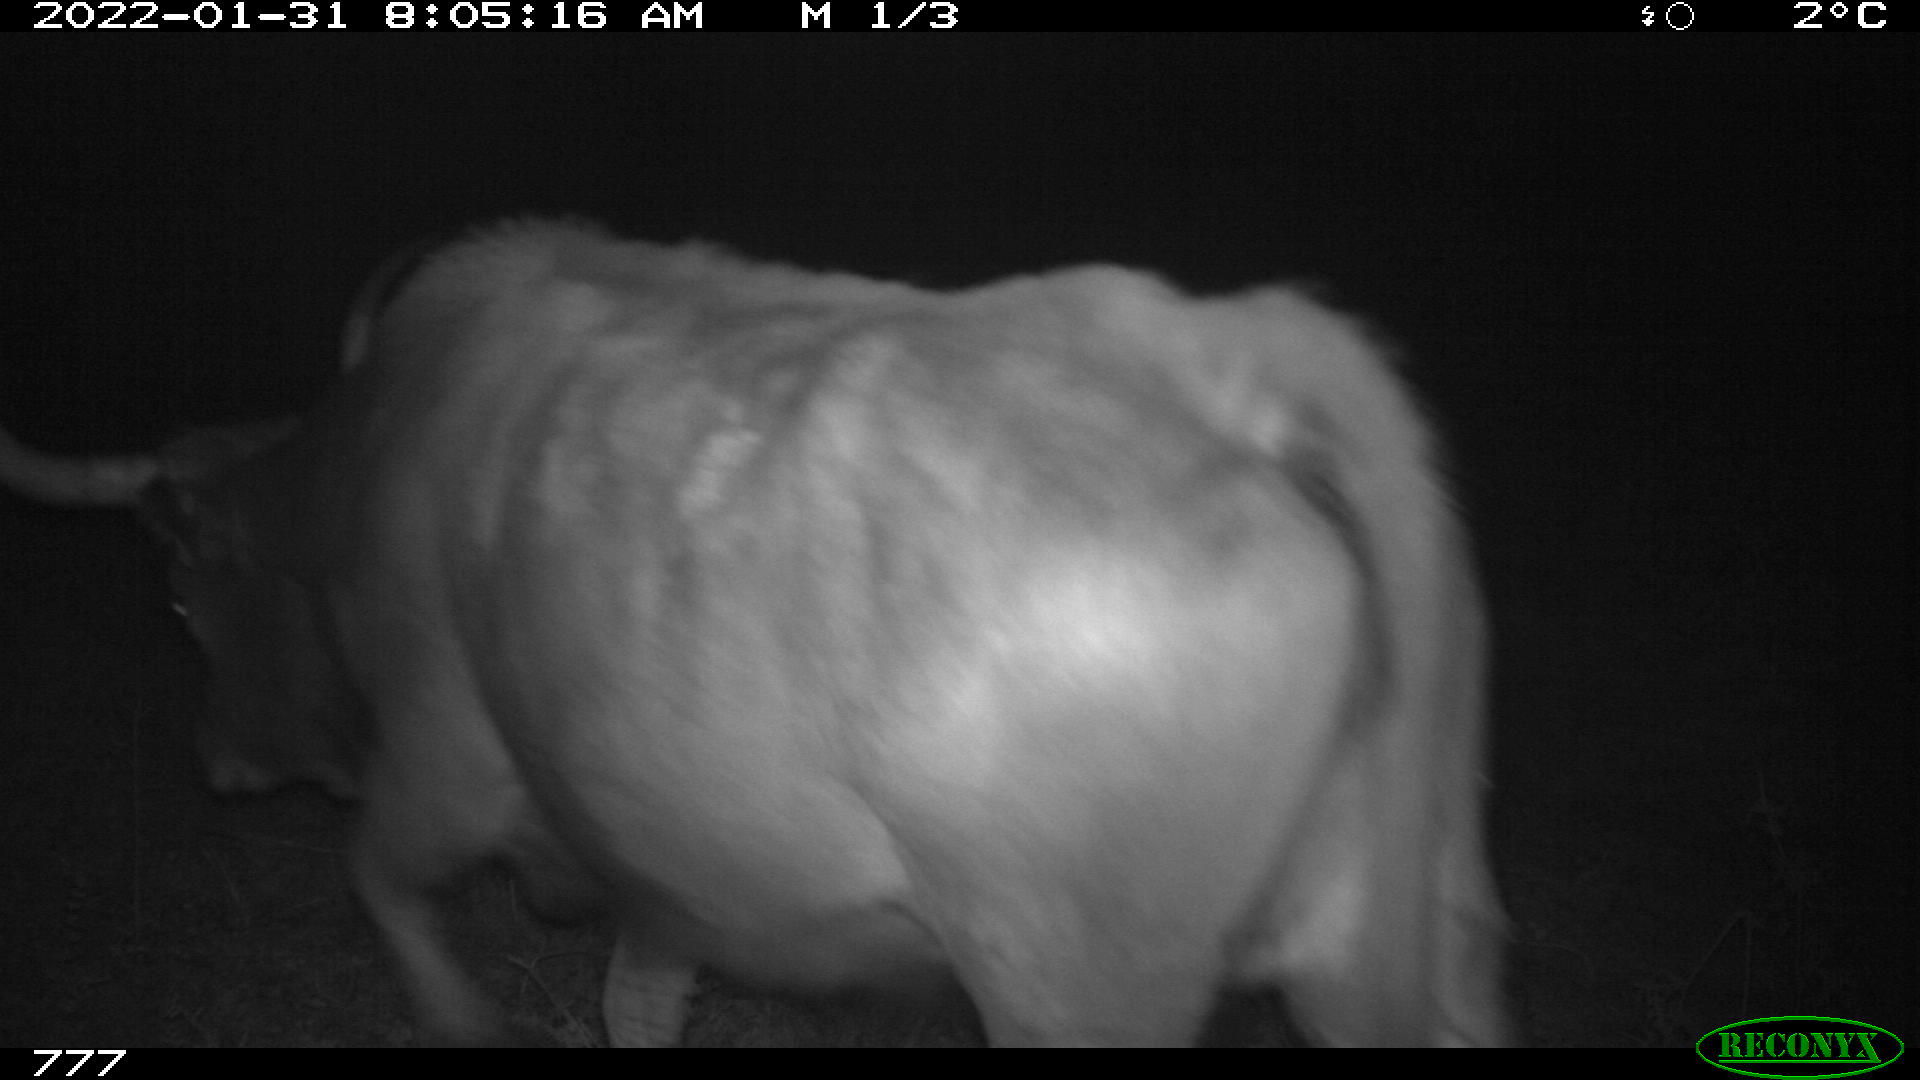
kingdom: Animalia
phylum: Chordata
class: Mammalia
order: Artiodactyla
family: Bovidae
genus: Bos
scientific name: Bos taurus
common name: Domesticated cattle
